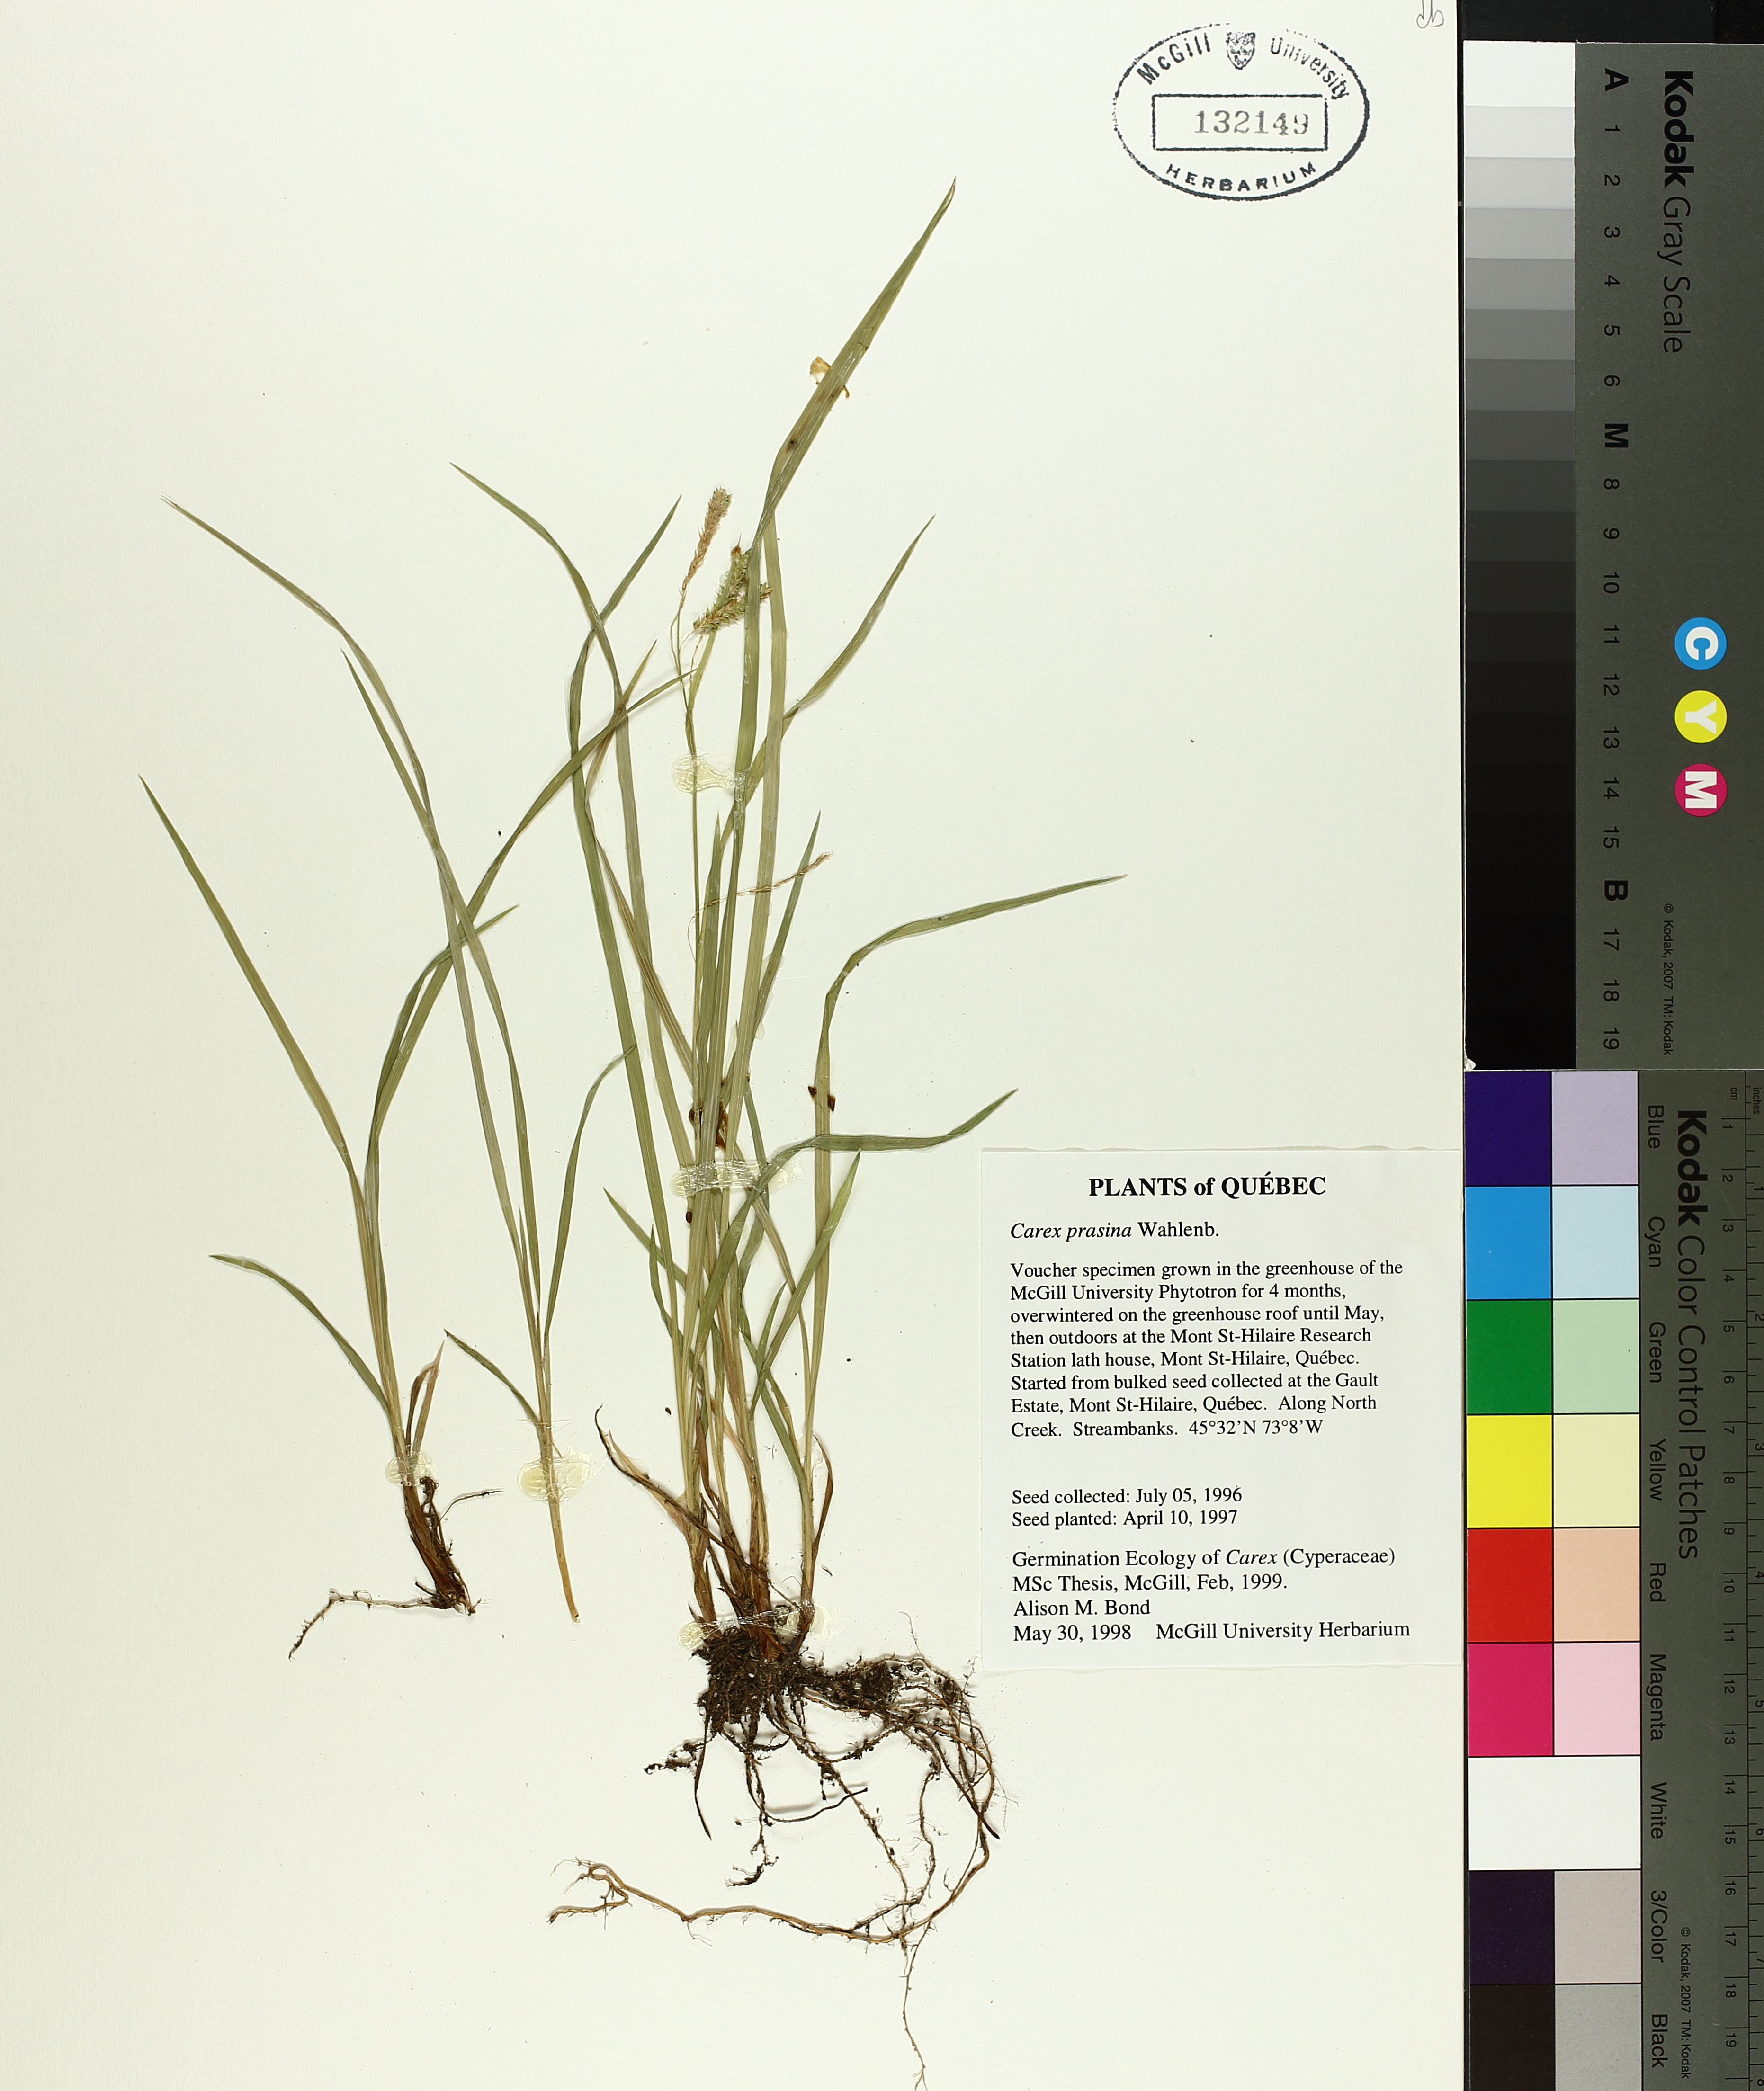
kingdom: Plantae
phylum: Tracheophyta
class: Liliopsida
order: Poales
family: Cyperaceae
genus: Carex
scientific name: Carex prasina
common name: Drooping sedge
